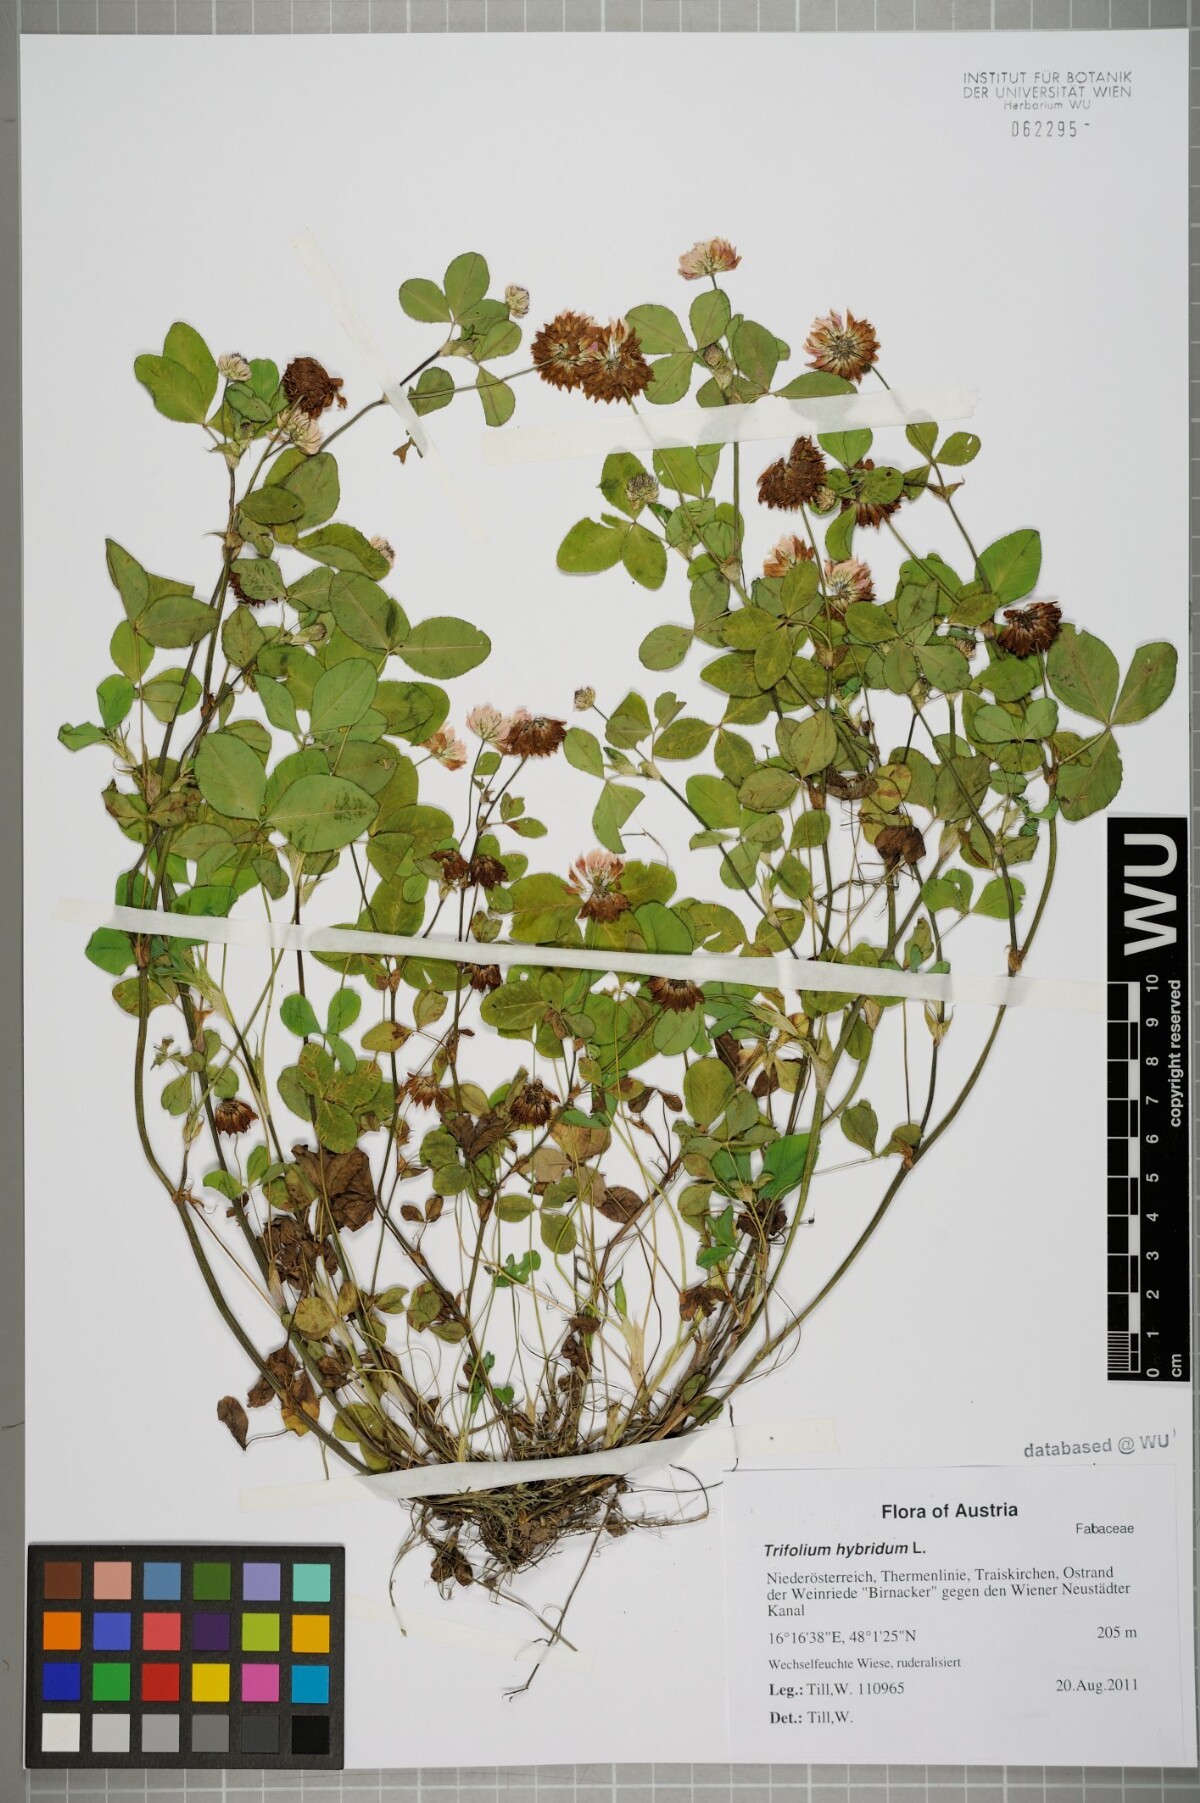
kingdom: Plantae
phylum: Tracheophyta
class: Magnoliopsida
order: Fabales
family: Fabaceae
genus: Trifolium
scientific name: Trifolium hybridum
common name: Alsike clover
